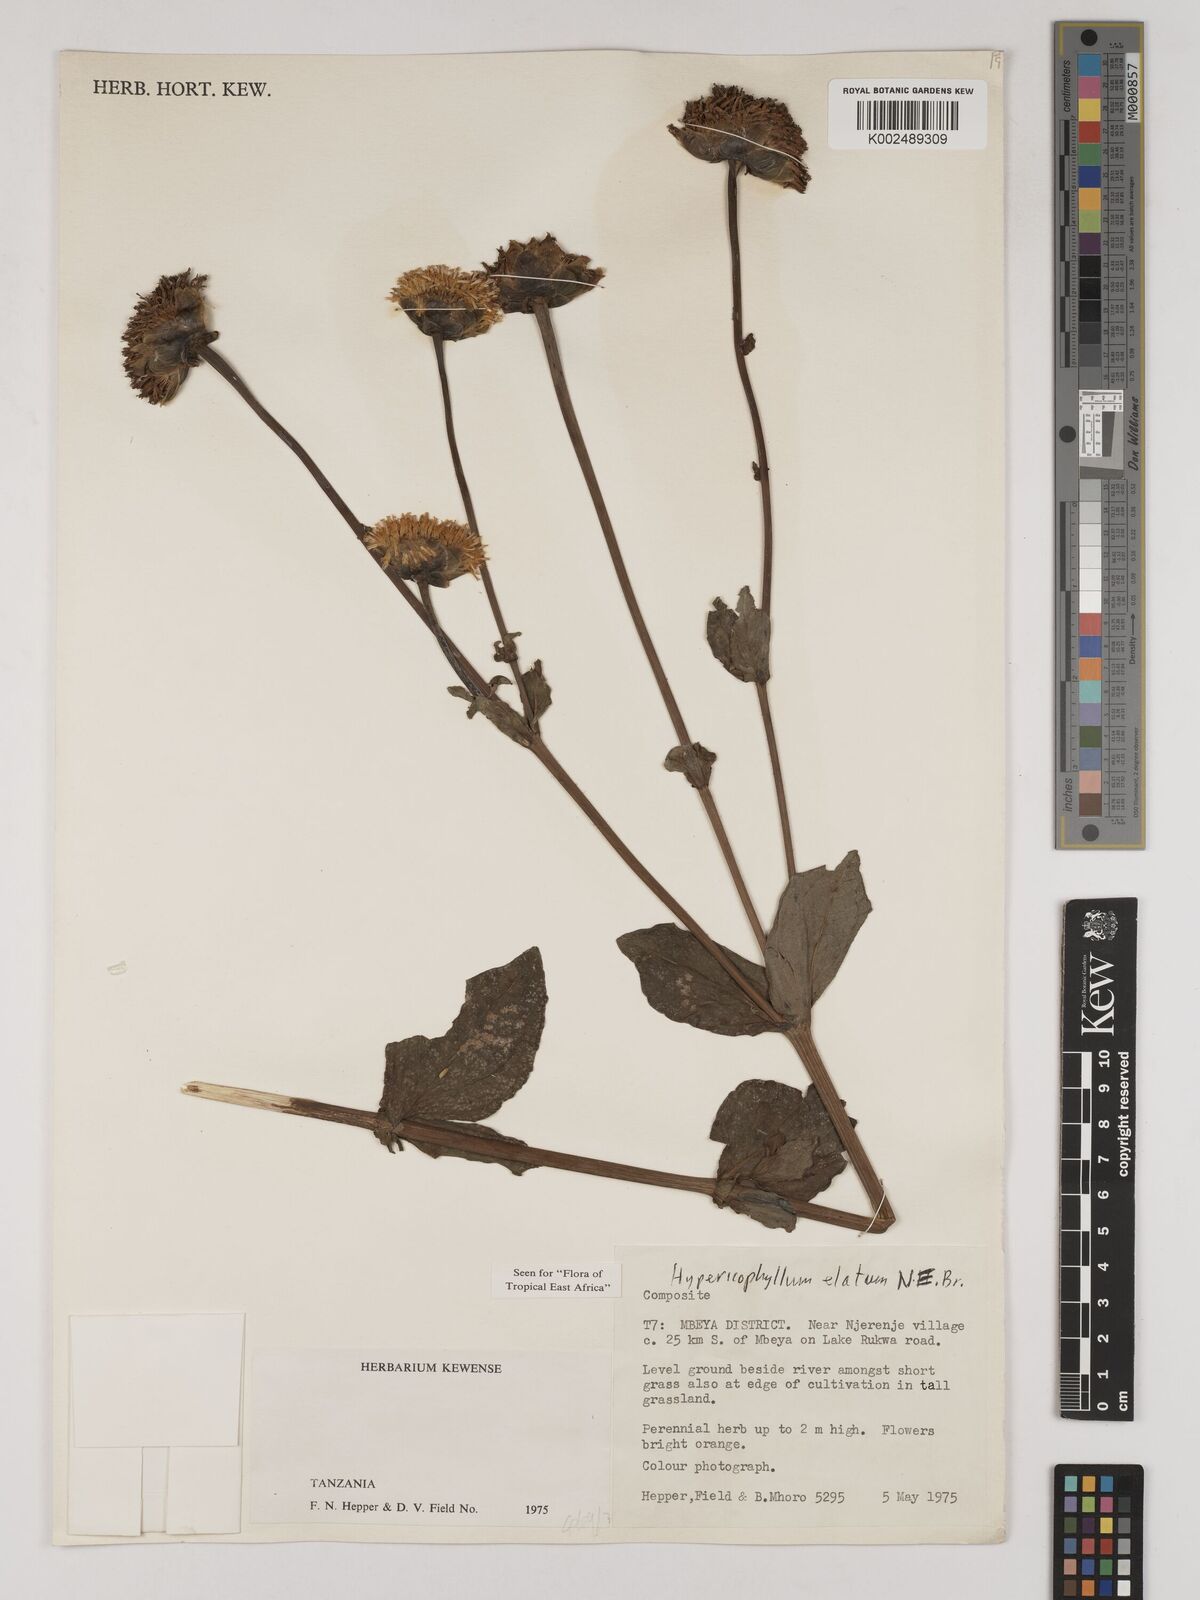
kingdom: Plantae
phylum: Tracheophyta
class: Magnoliopsida
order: Asterales
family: Asteraceae
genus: Hypericophyllum
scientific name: Hypericophyllum elatum
